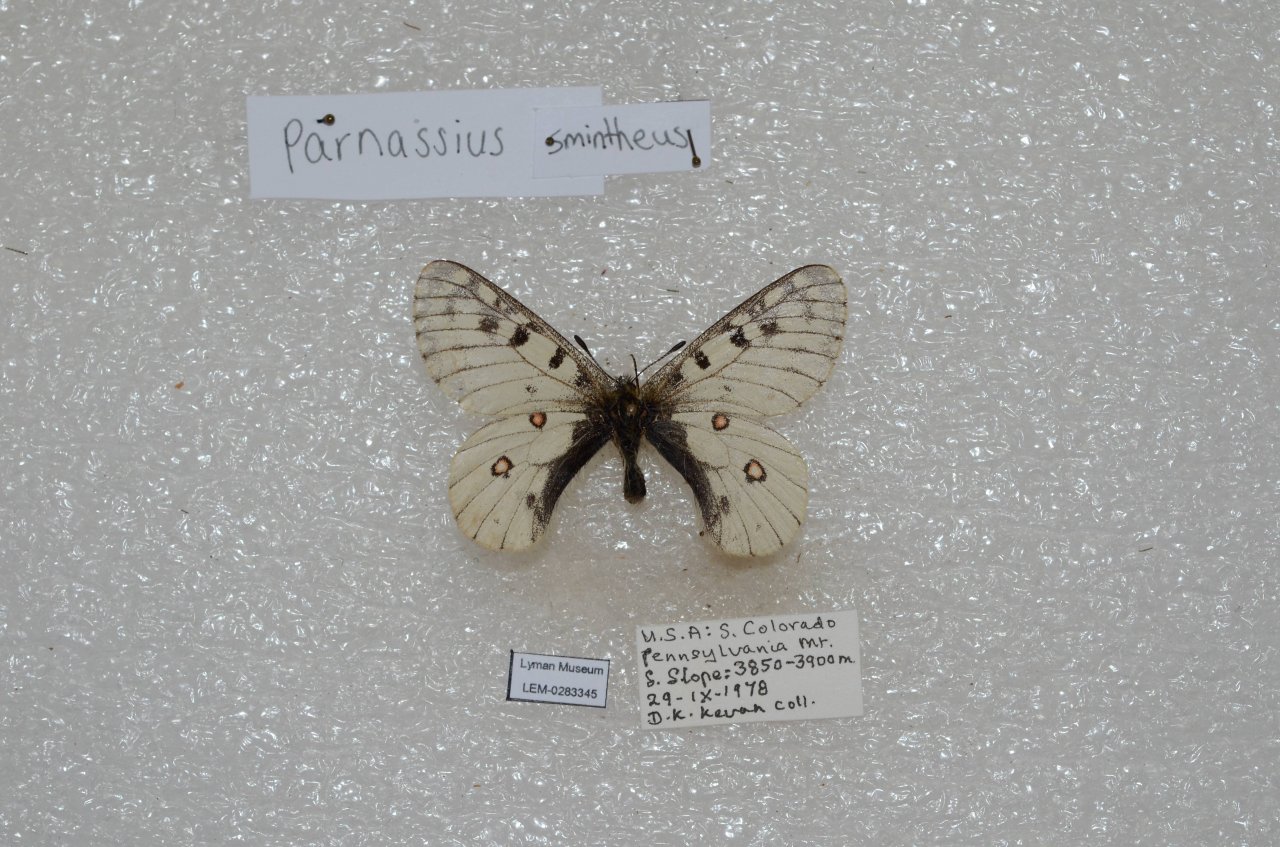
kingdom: Animalia
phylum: Arthropoda
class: Insecta
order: Lepidoptera
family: Papilionidae
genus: Parnassius
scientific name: Parnassius smintheus
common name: Rocky Mountain Parnassian
